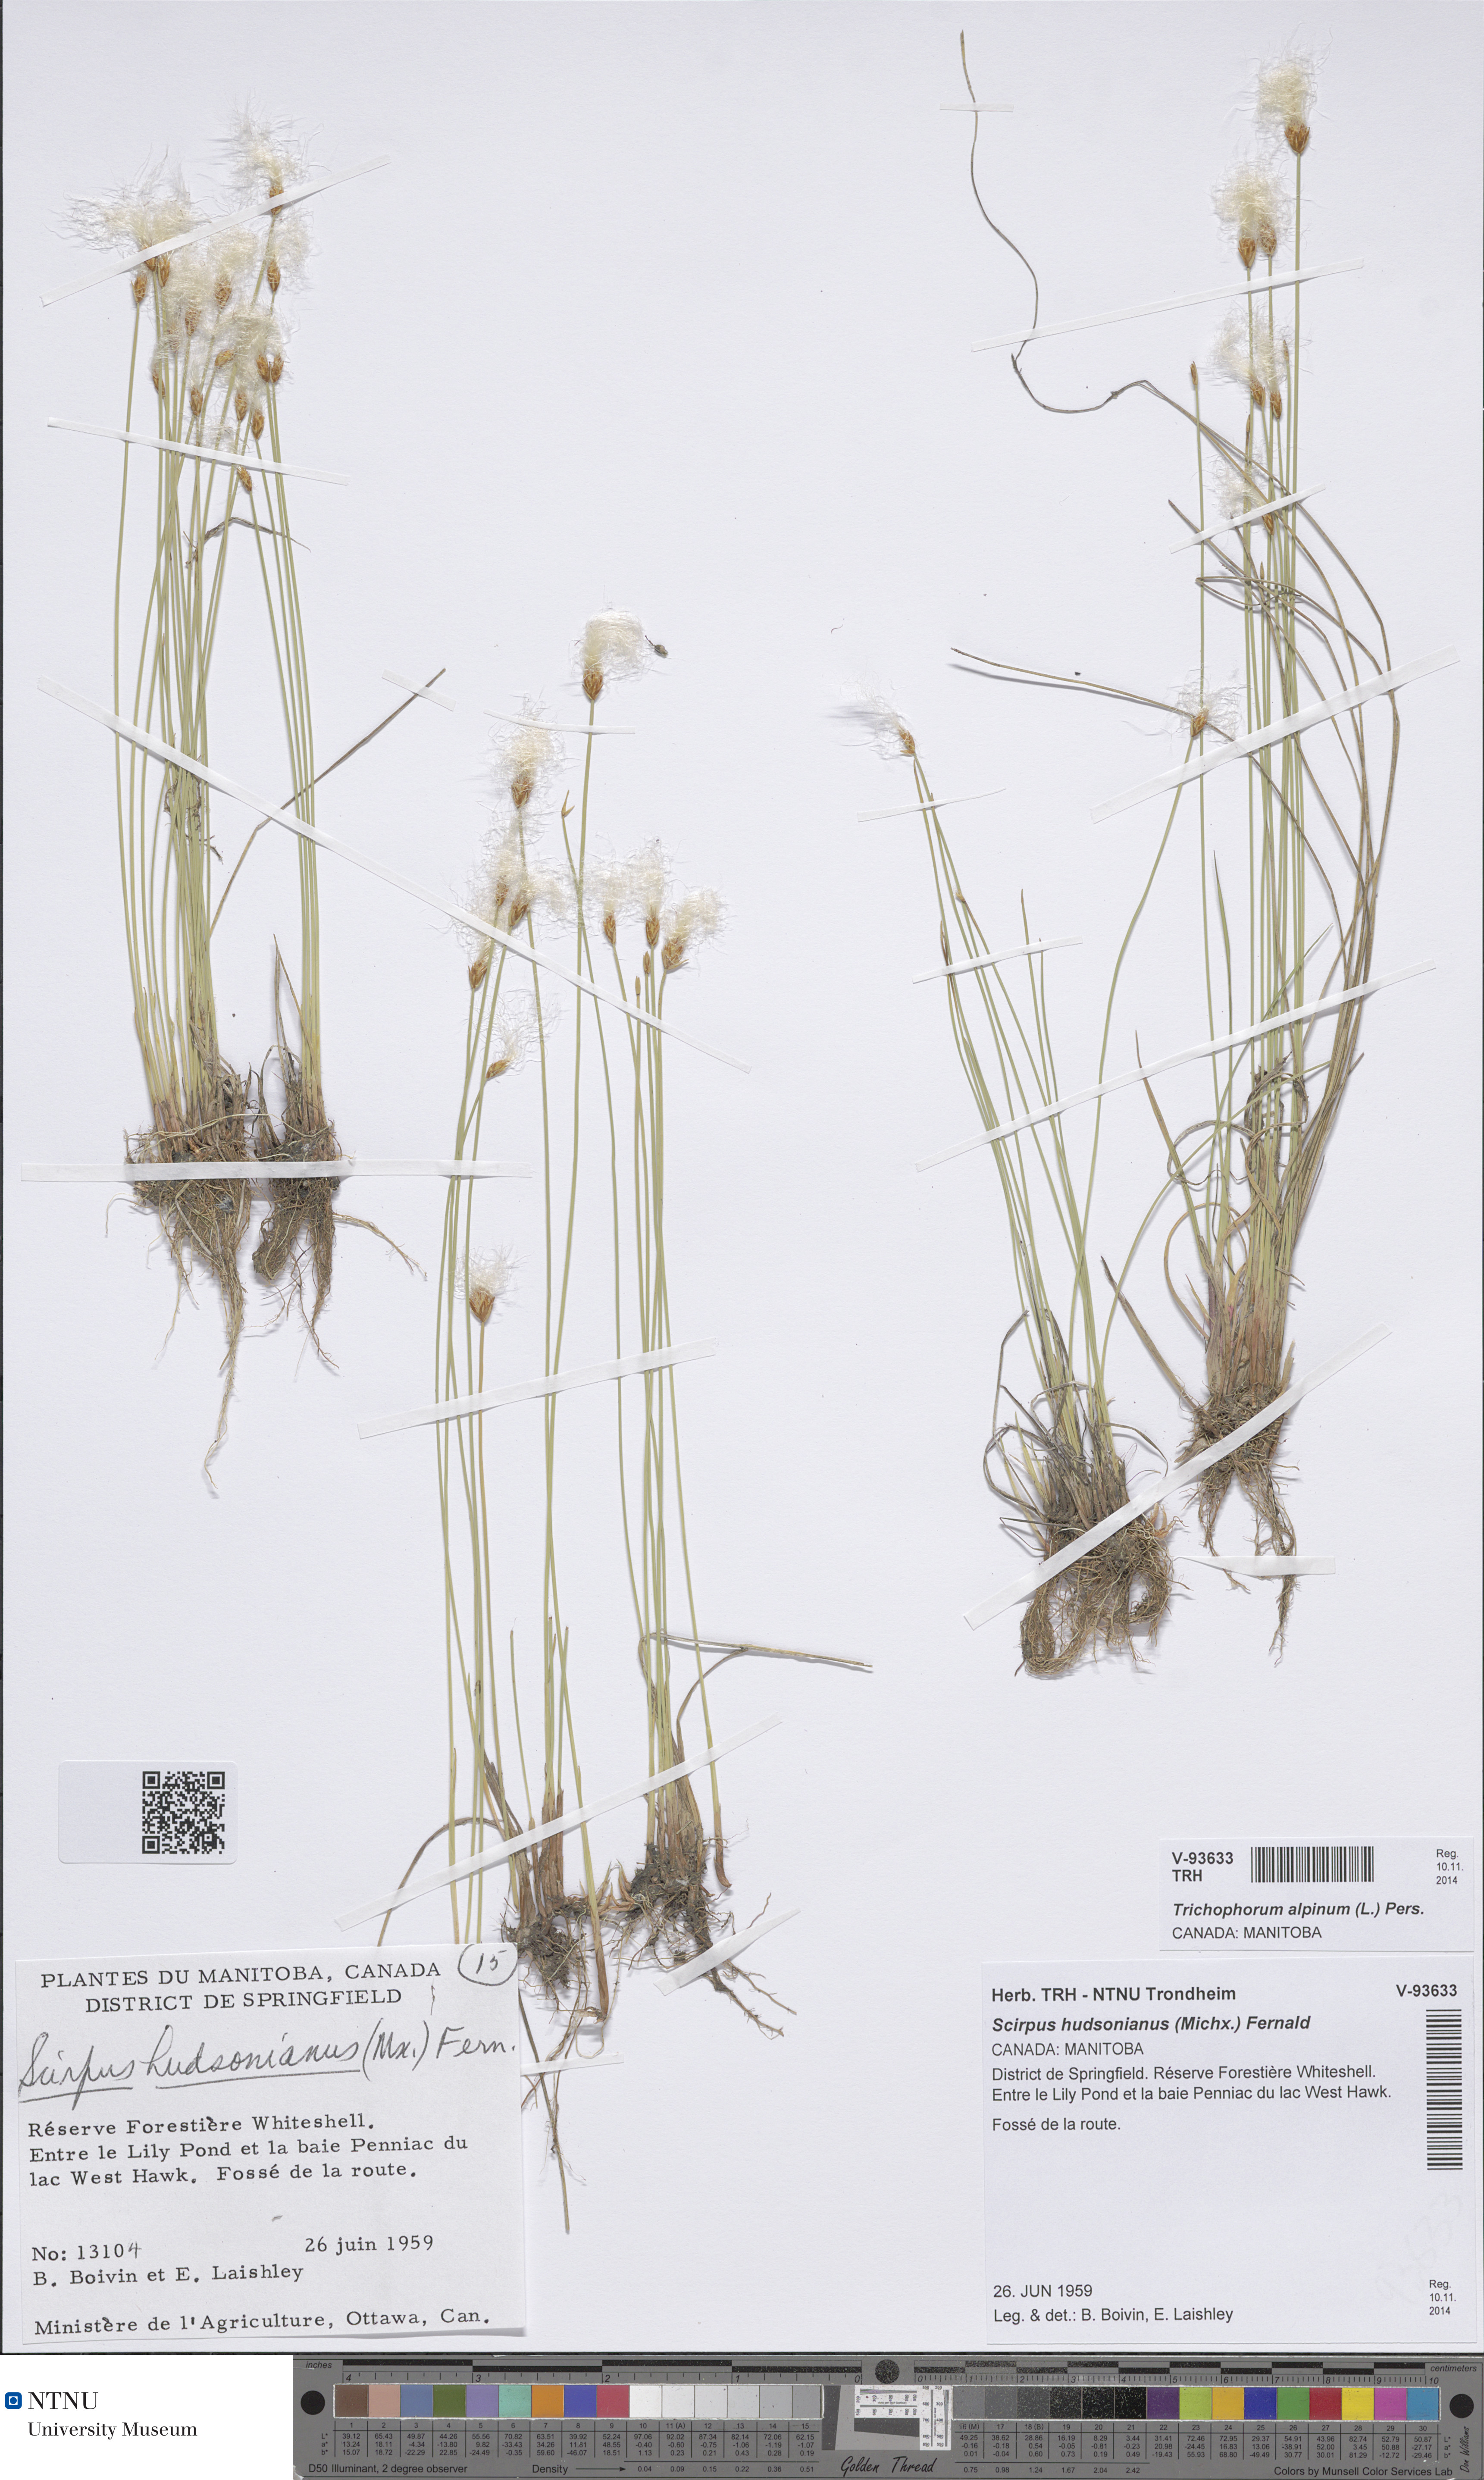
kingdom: Plantae
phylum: Tracheophyta
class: Liliopsida
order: Poales
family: Cyperaceae
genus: Trichophorum
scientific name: Trichophorum alpinum
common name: Alpine bulrush
